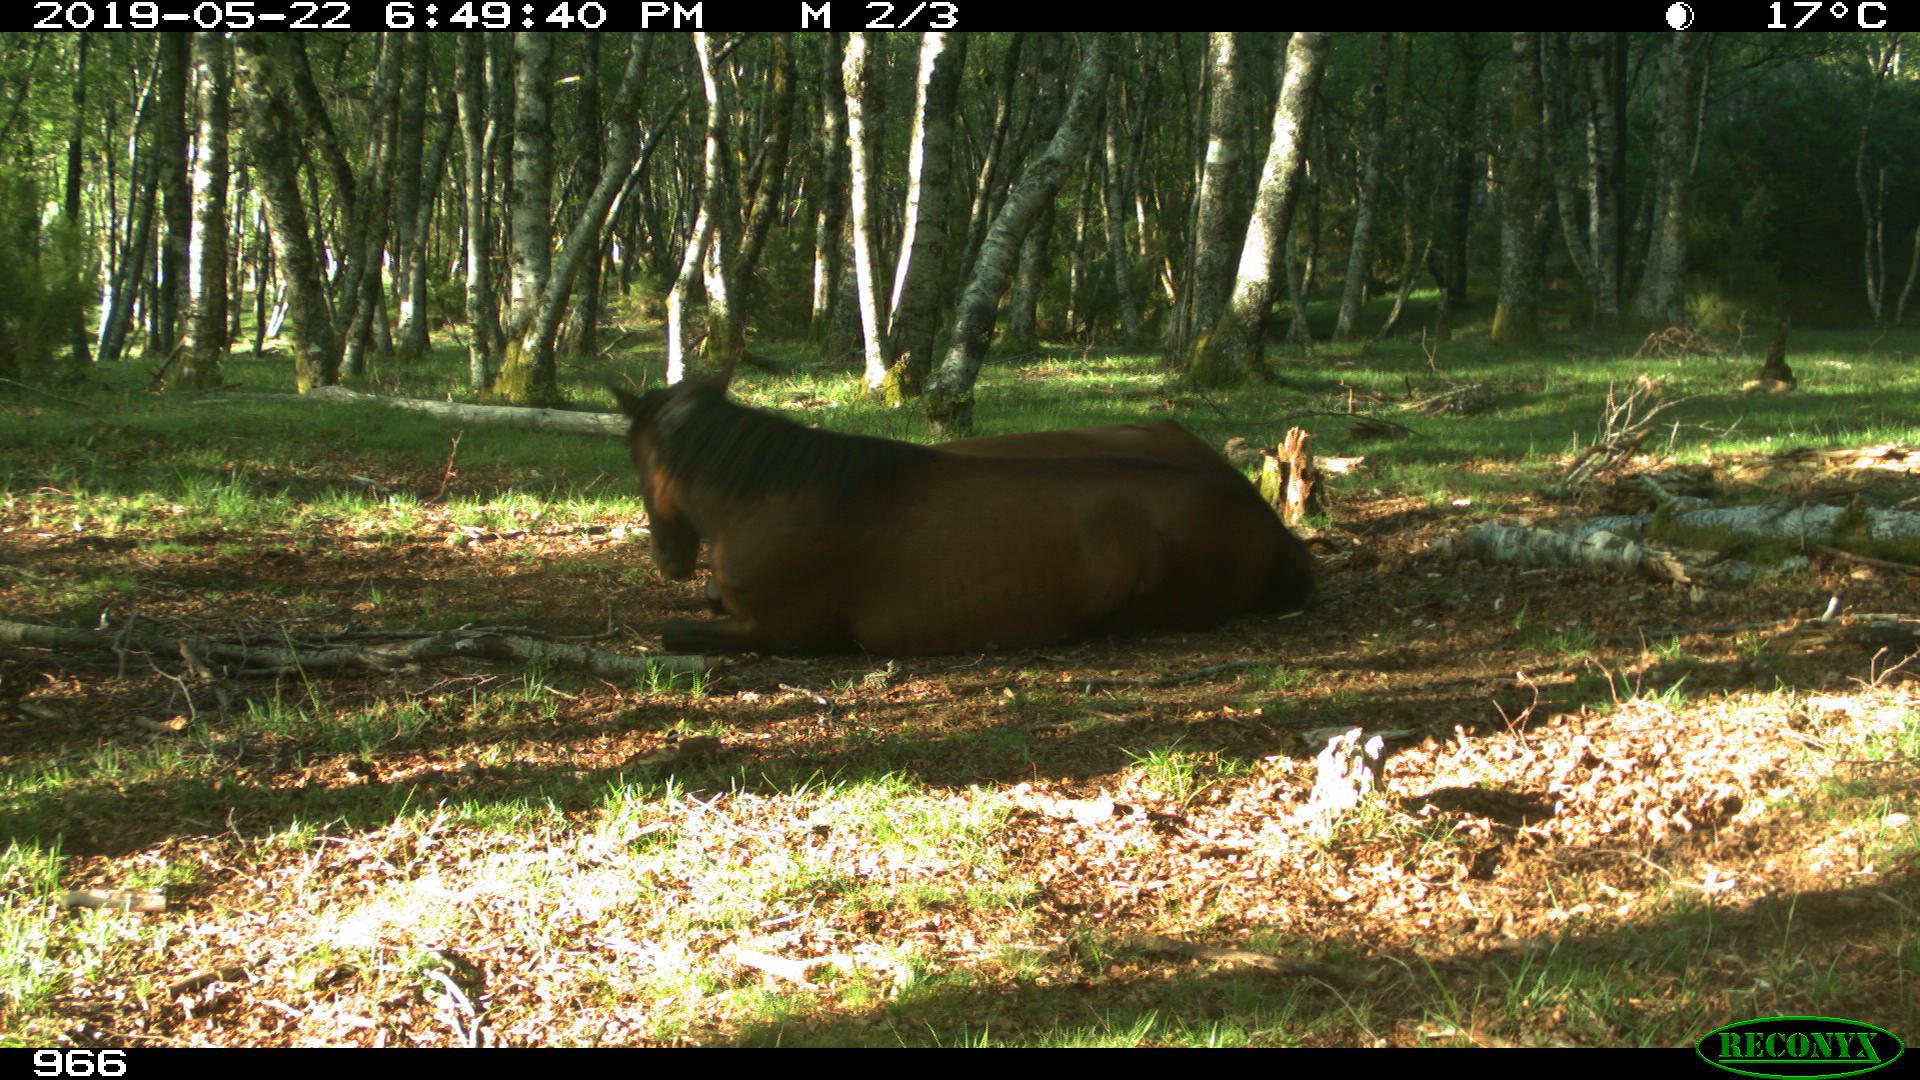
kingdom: Animalia
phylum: Chordata
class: Mammalia
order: Perissodactyla
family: Equidae
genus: Equus
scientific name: Equus caballus
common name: Horse
